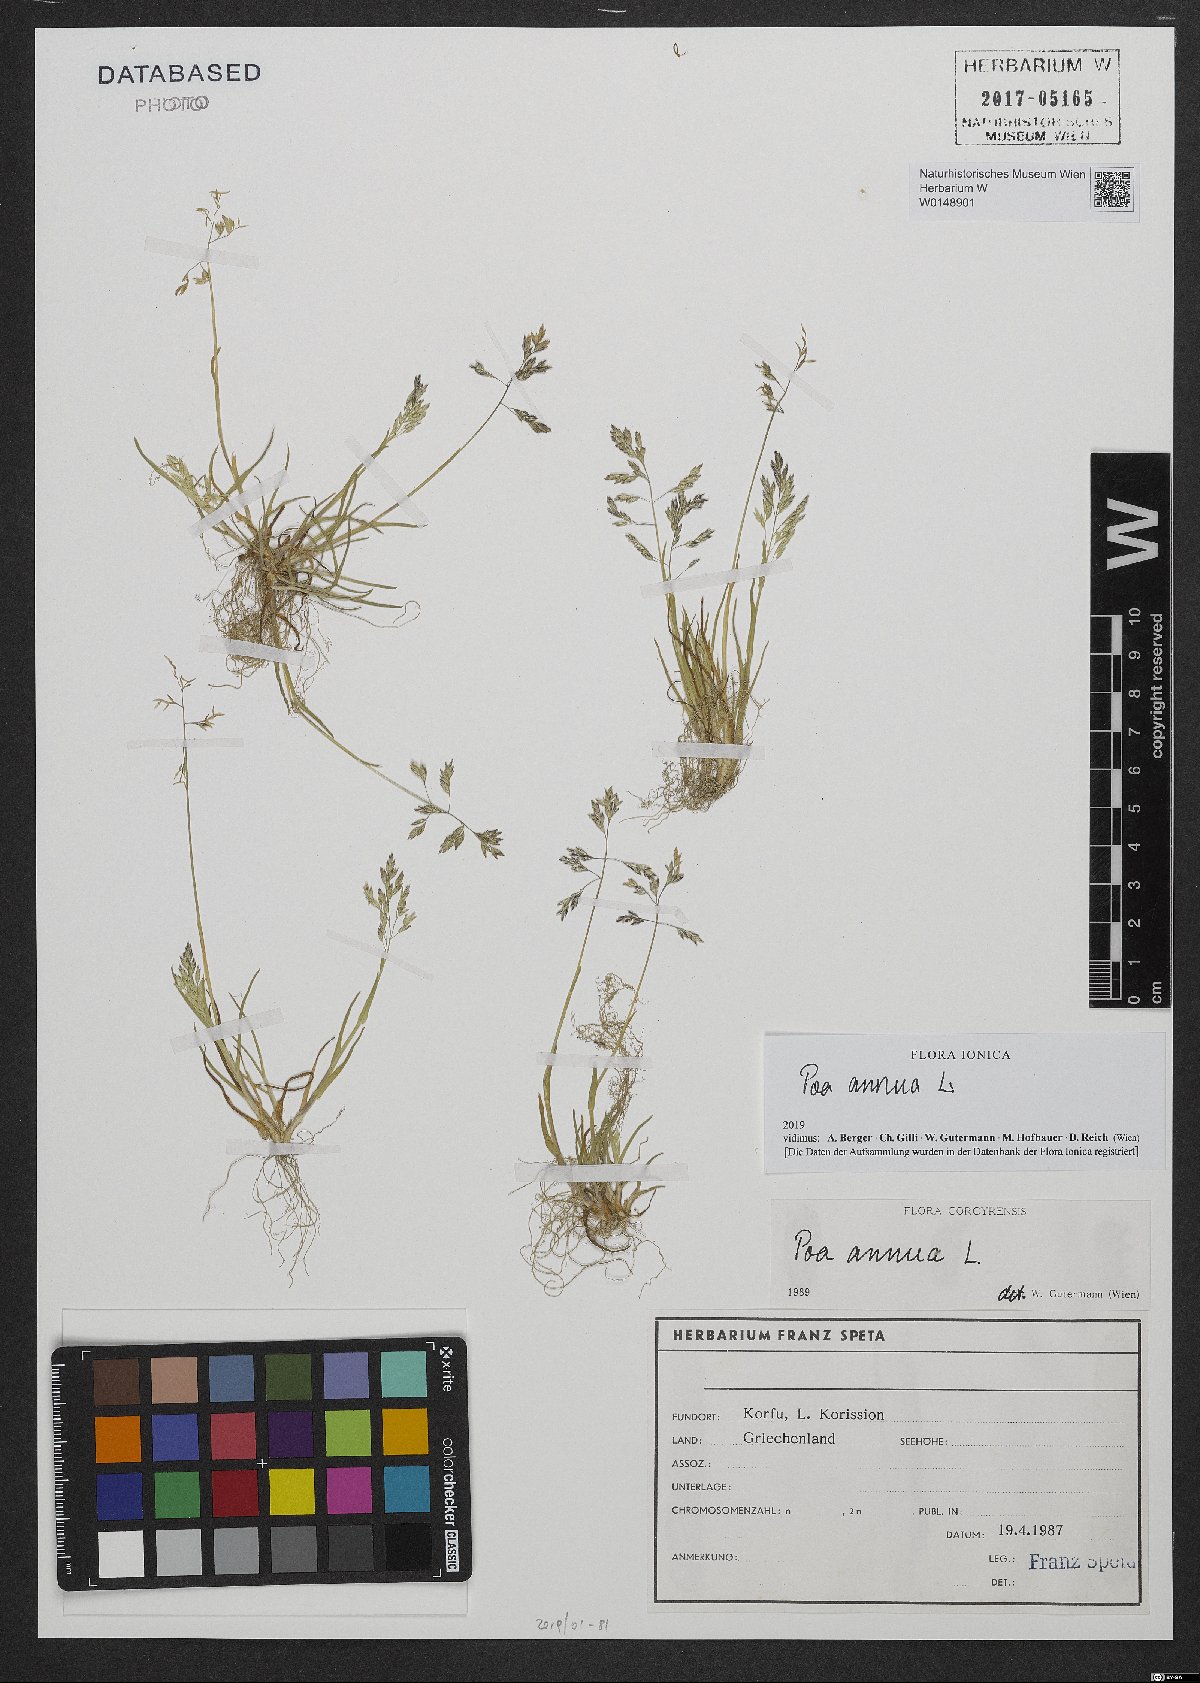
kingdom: Plantae
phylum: Tracheophyta
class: Liliopsida
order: Poales
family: Poaceae
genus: Poa
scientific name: Poa annua
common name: Annual bluegrass
